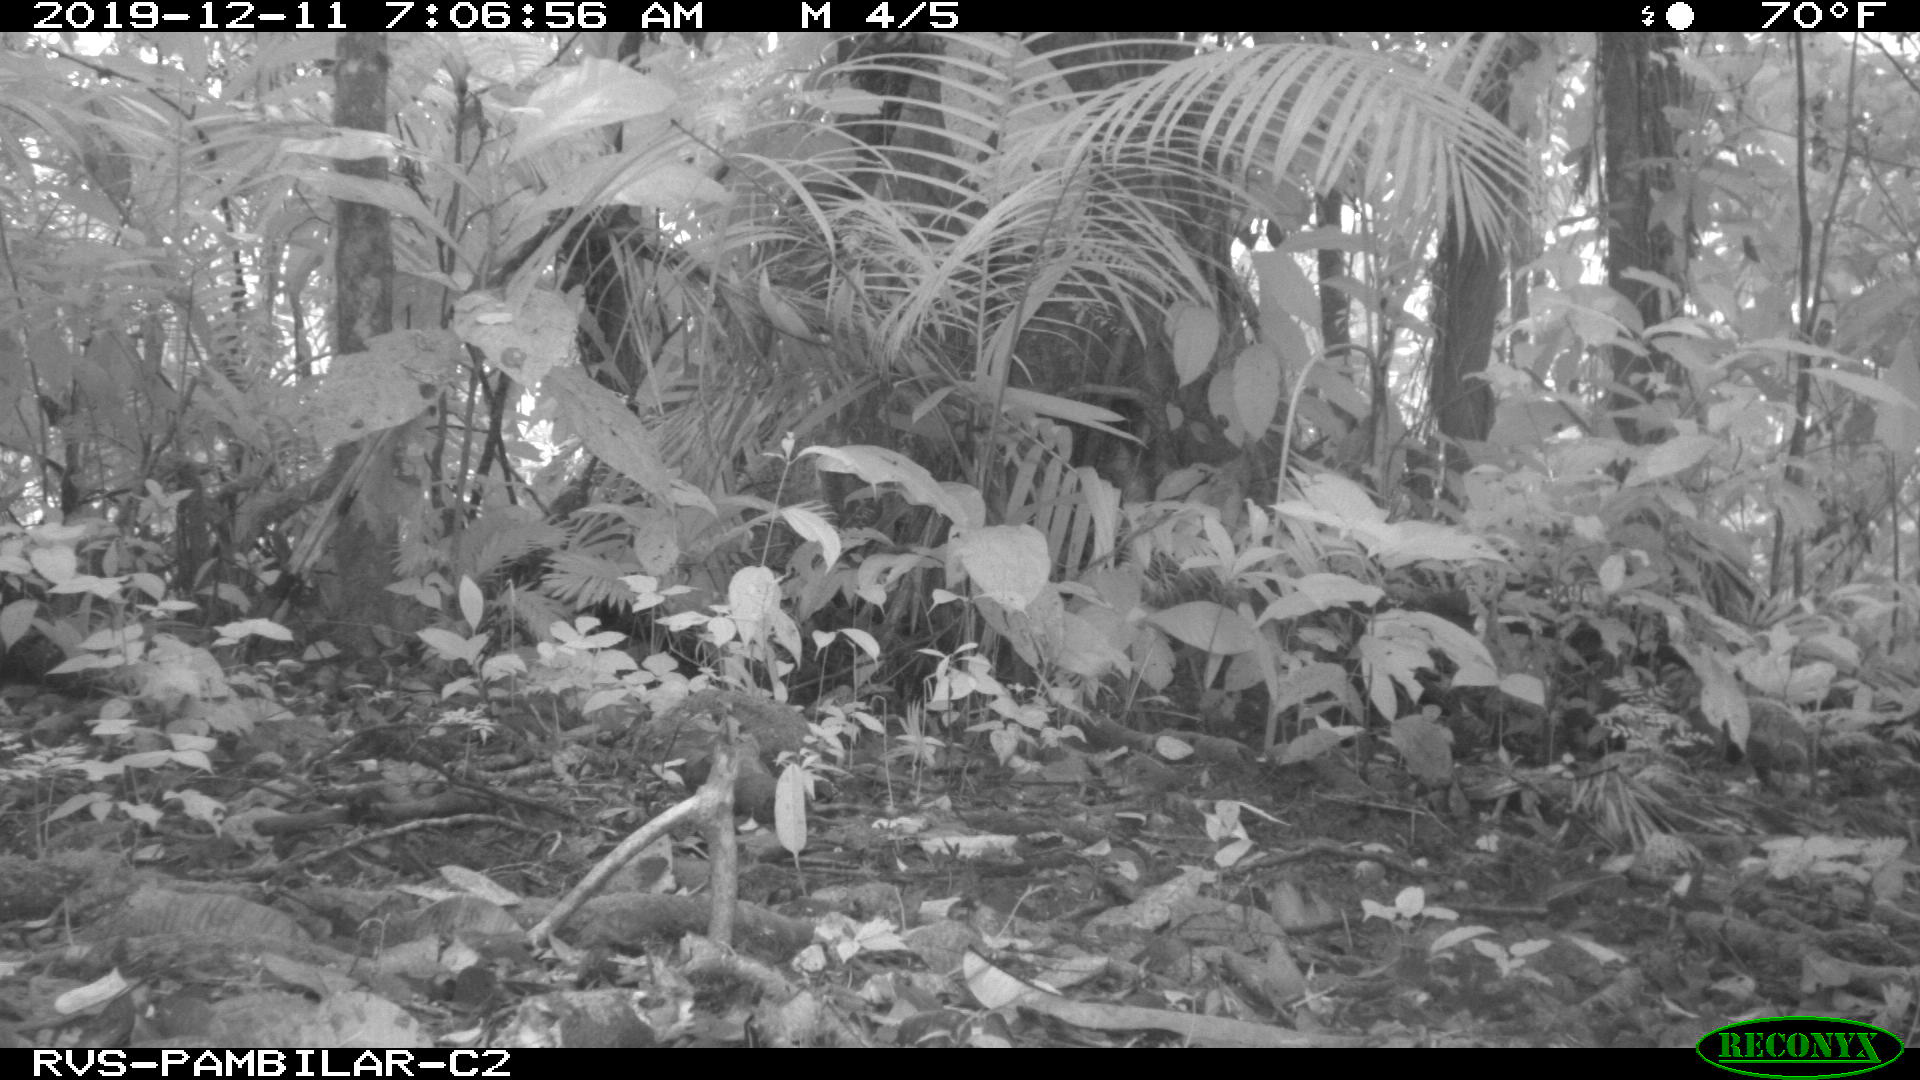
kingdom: Animalia
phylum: Chordata
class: Mammalia
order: Rodentia
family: Dasyproctidae
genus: Dasyprocta
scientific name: Dasyprocta punctata
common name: Central american agouti
